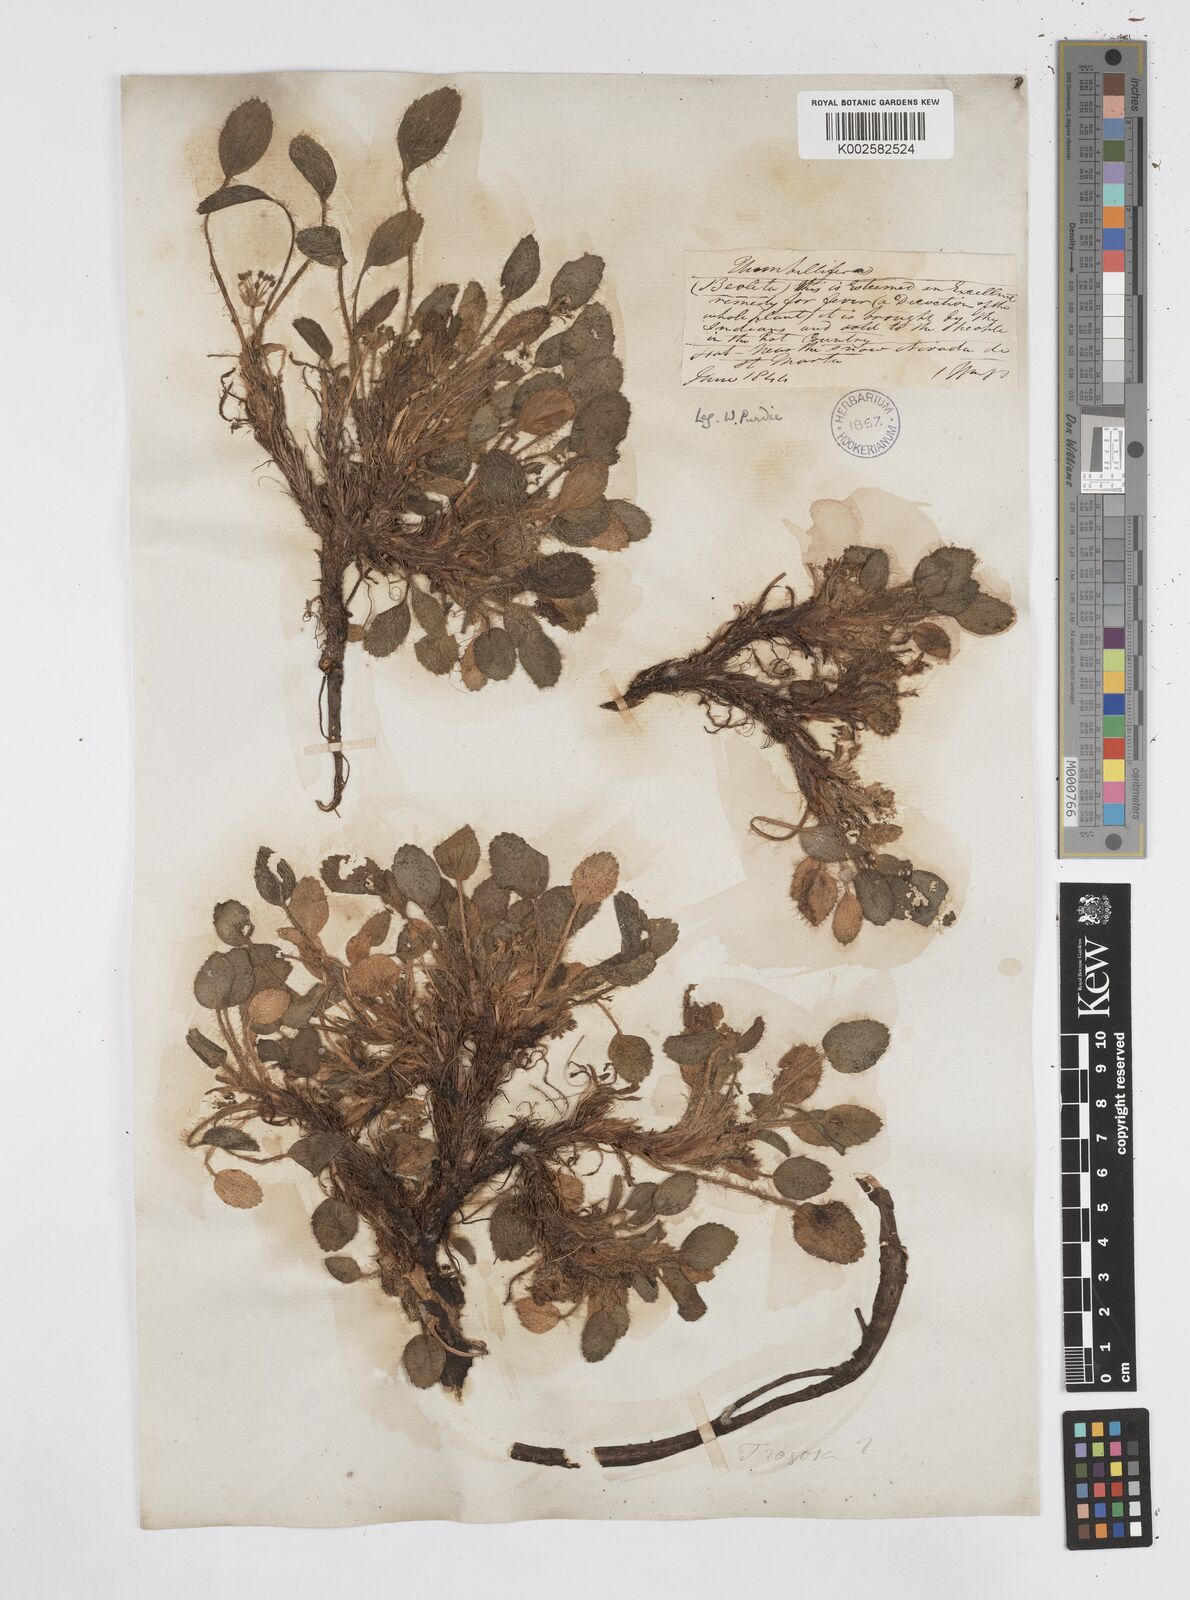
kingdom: Plantae
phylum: Tracheophyta
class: Magnoliopsida
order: Apiales
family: Apiaceae
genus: Azorella
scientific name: Azorella crenata
